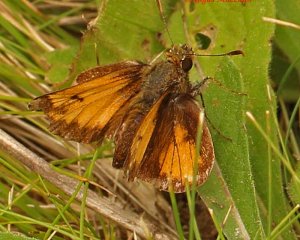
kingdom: Animalia
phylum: Arthropoda
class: Insecta
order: Lepidoptera
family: Hesperiidae
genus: Lon
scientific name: Lon hobomok
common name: Hobomok Skipper
